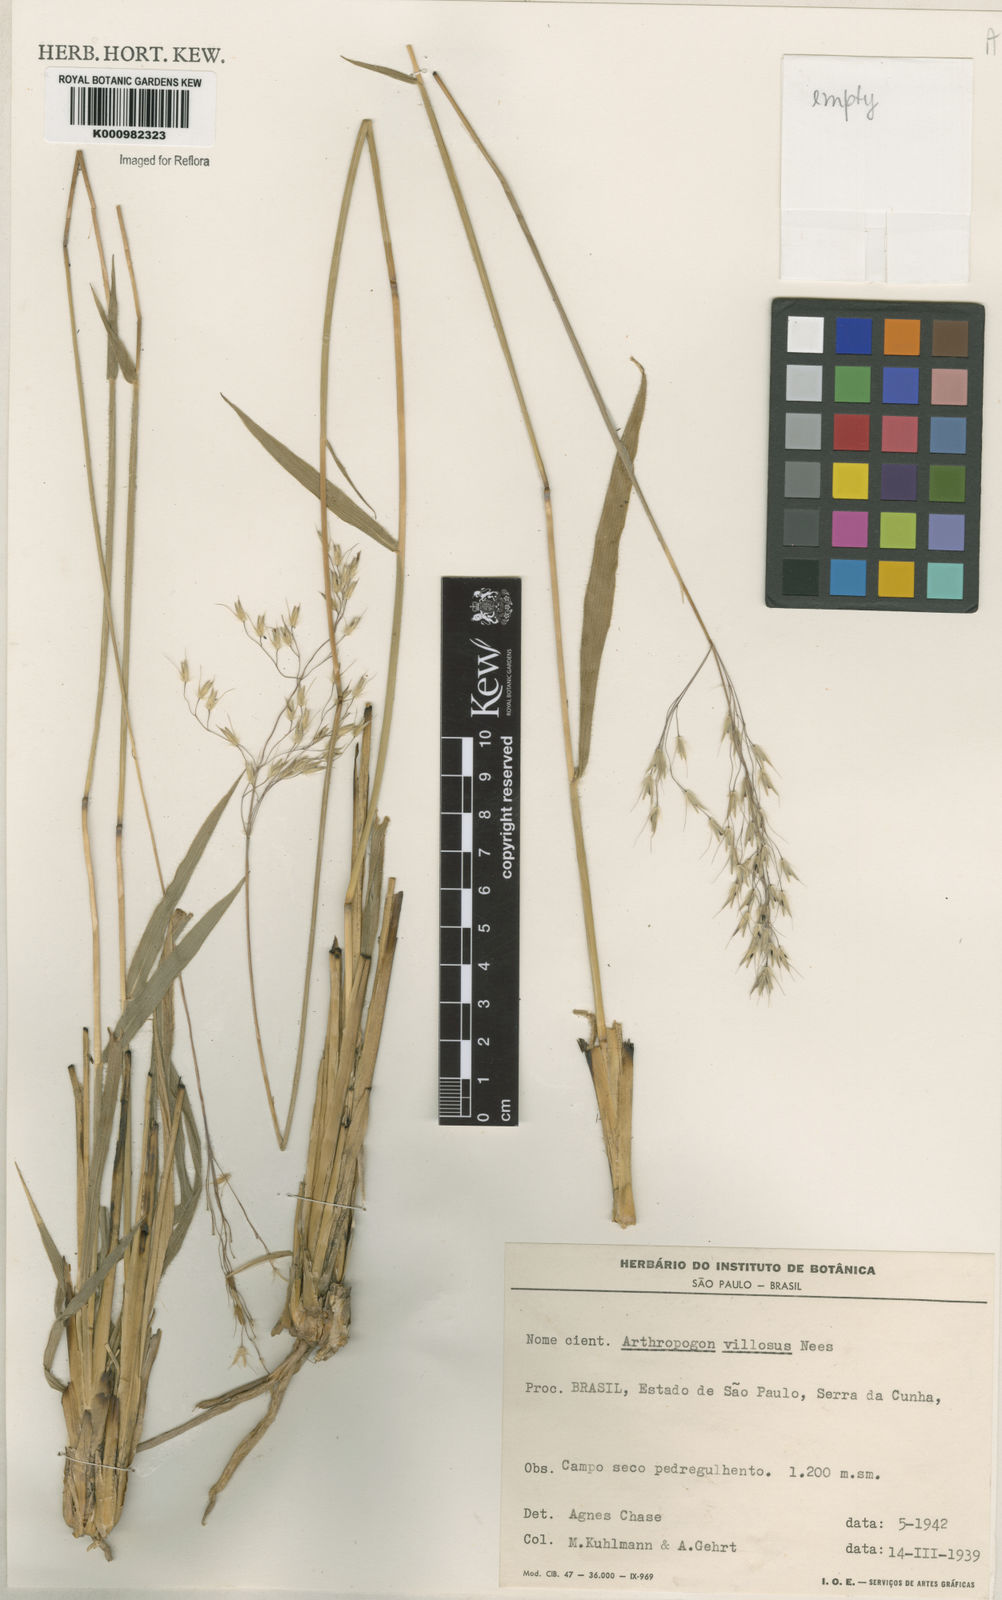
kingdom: Plantae
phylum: Tracheophyta
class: Liliopsida
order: Poales
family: Poaceae
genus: Arthropogon
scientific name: Arthropogon villosus
